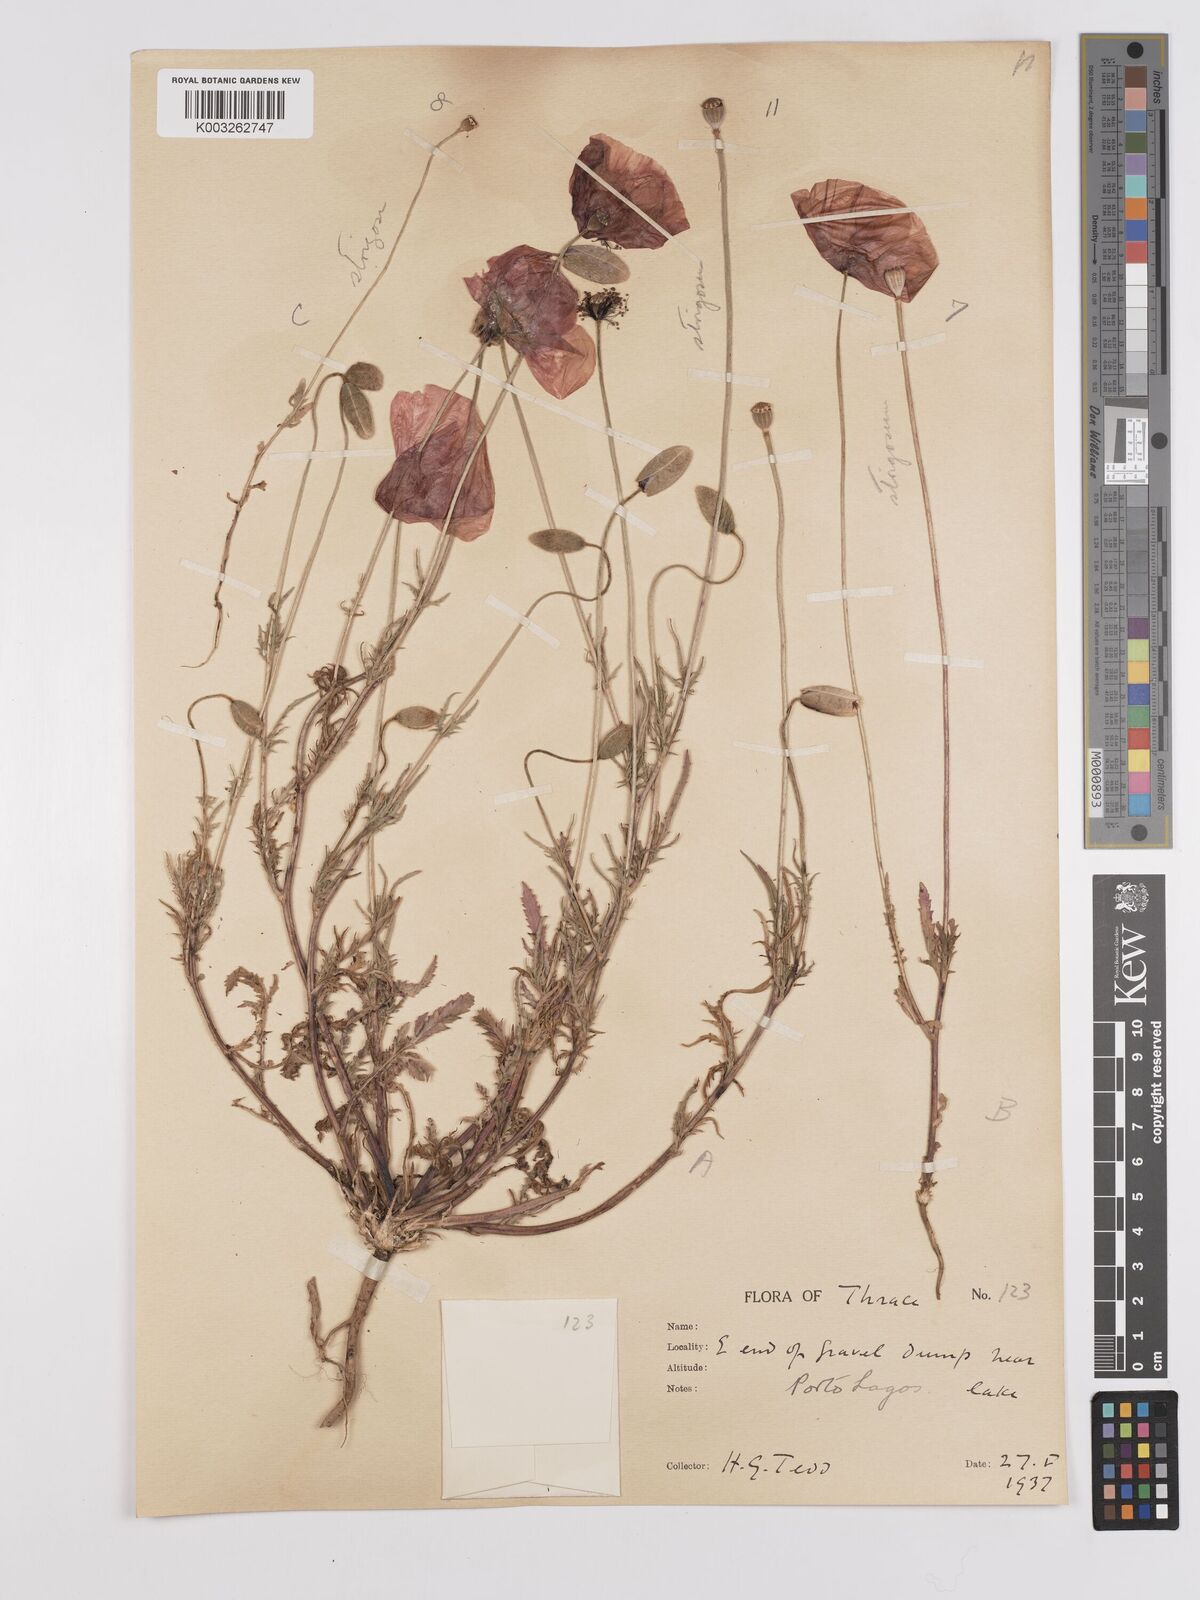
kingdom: Plantae
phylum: Tracheophyta
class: Magnoliopsida
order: Ranunculales
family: Papaveraceae
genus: Papaver
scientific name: Papaver
